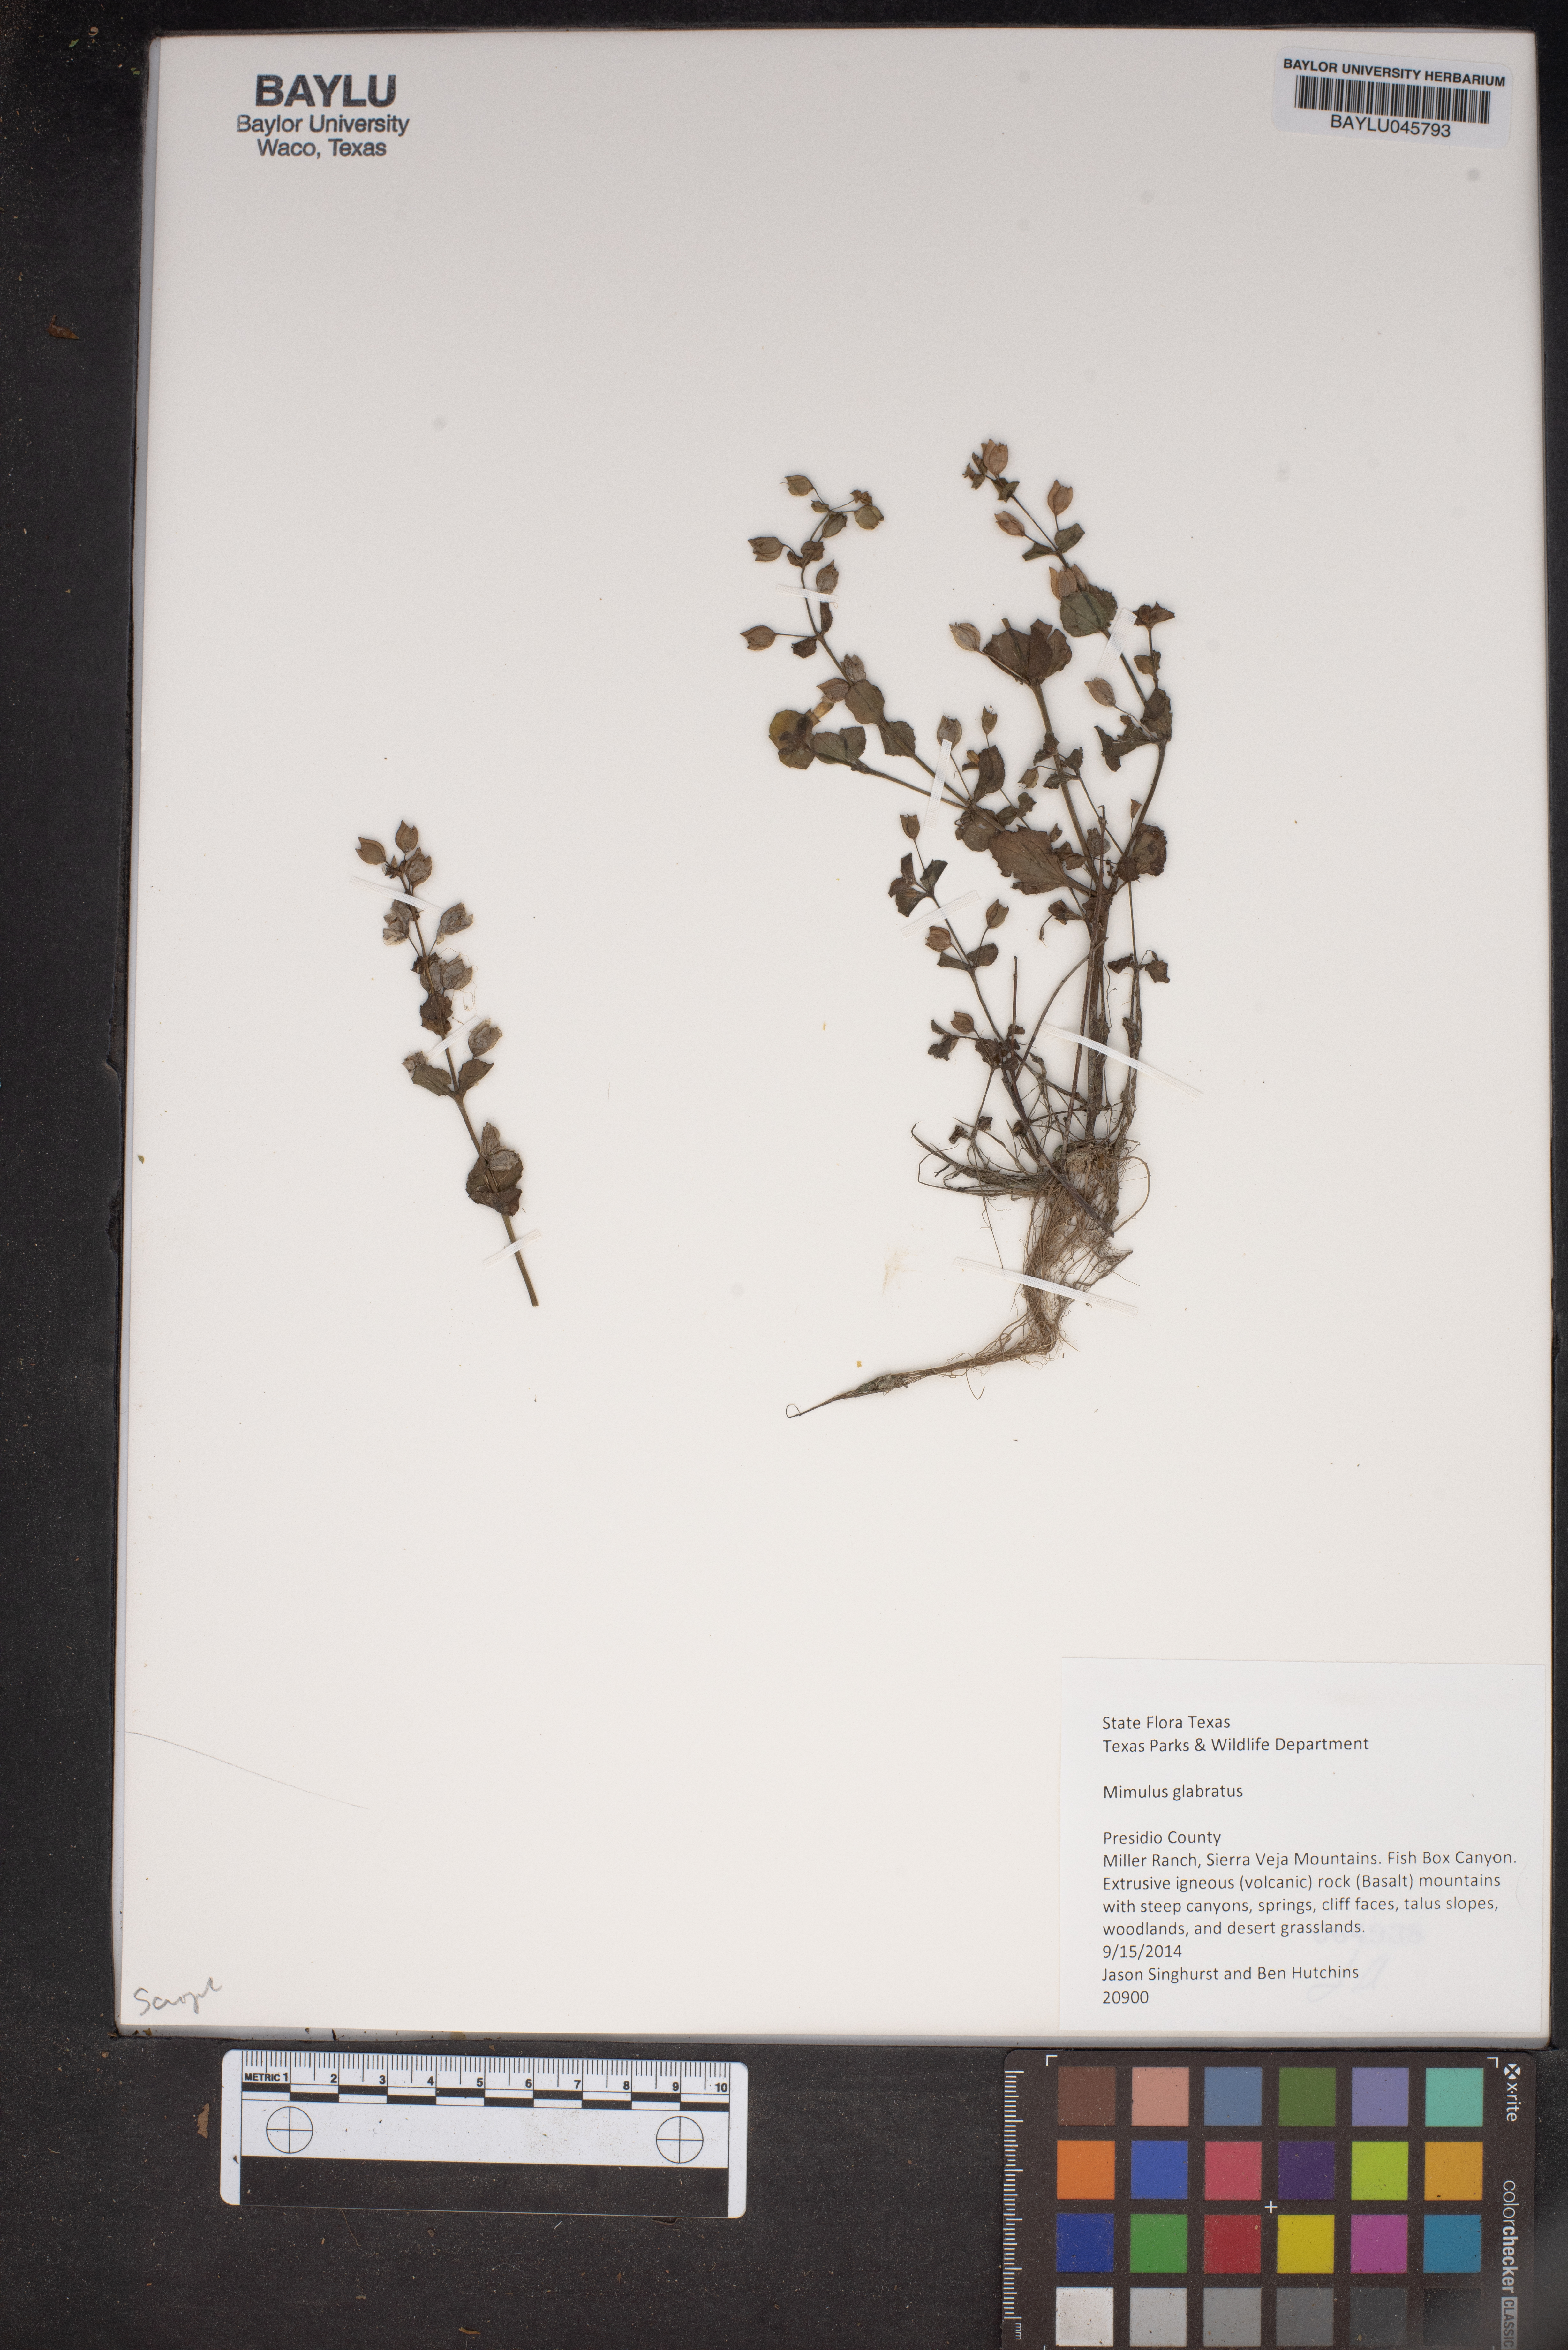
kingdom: Plantae
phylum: Tracheophyta
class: Magnoliopsida
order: Lamiales
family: Phrymaceae
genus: Erythranthe
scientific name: Erythranthe glabrata
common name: Round-leaved monkeyflower
